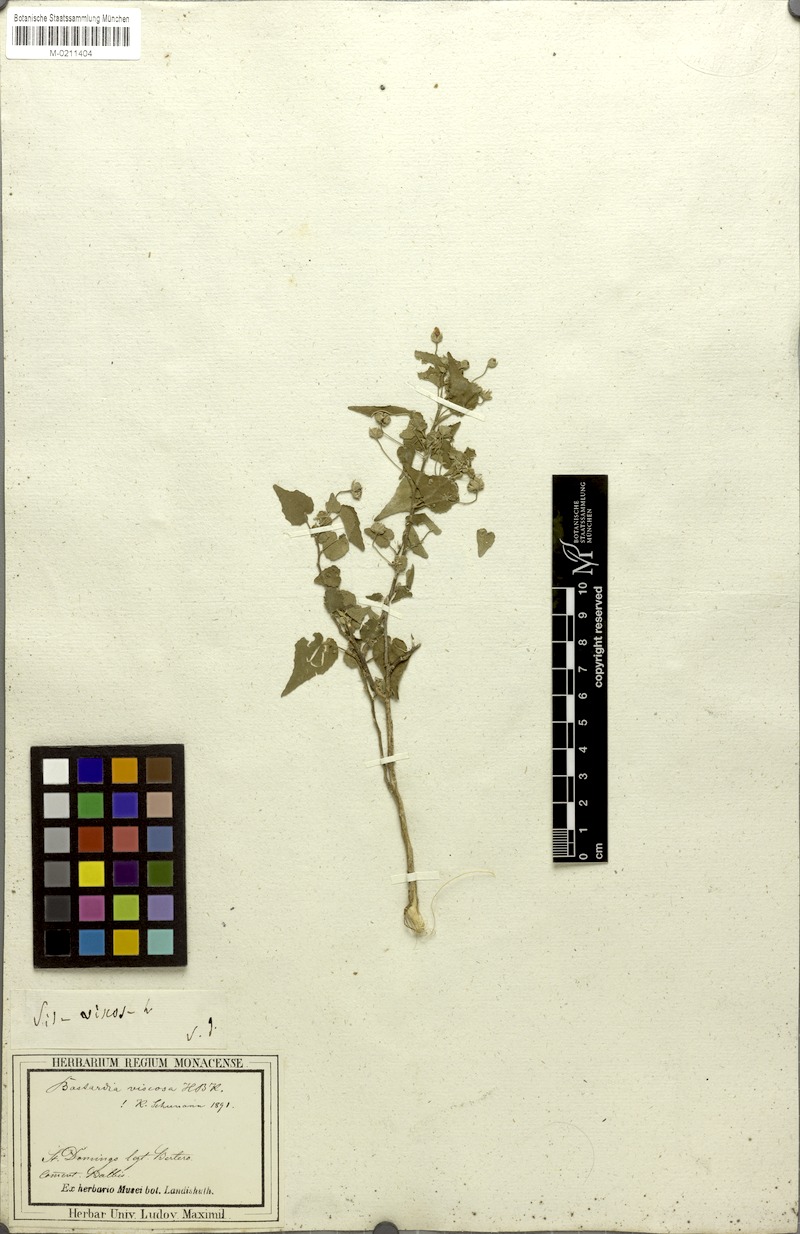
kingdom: Plantae
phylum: Tracheophyta
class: Magnoliopsida
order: Malvales
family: Malvaceae
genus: Abutilon
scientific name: Abutilon viscosum
